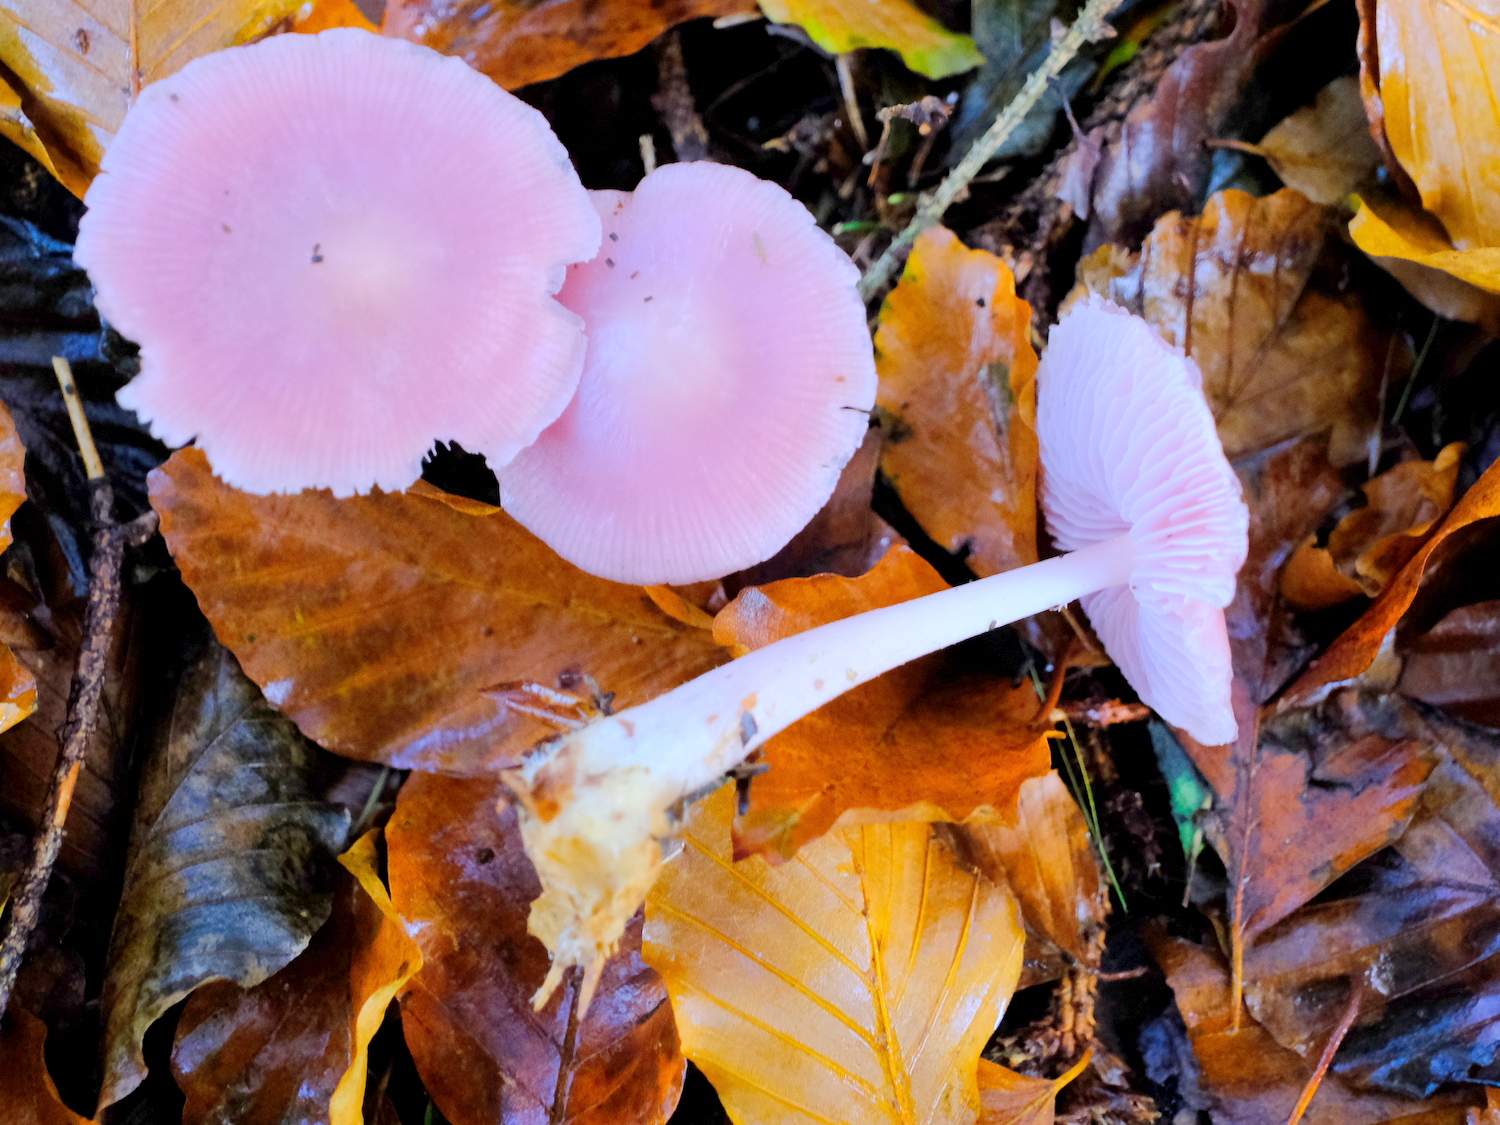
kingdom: Fungi
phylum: Basidiomycota
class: Agaricomycetes
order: Agaricales
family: Mycenaceae
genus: Mycena
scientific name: Mycena rosea
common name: rosa huesvamp
